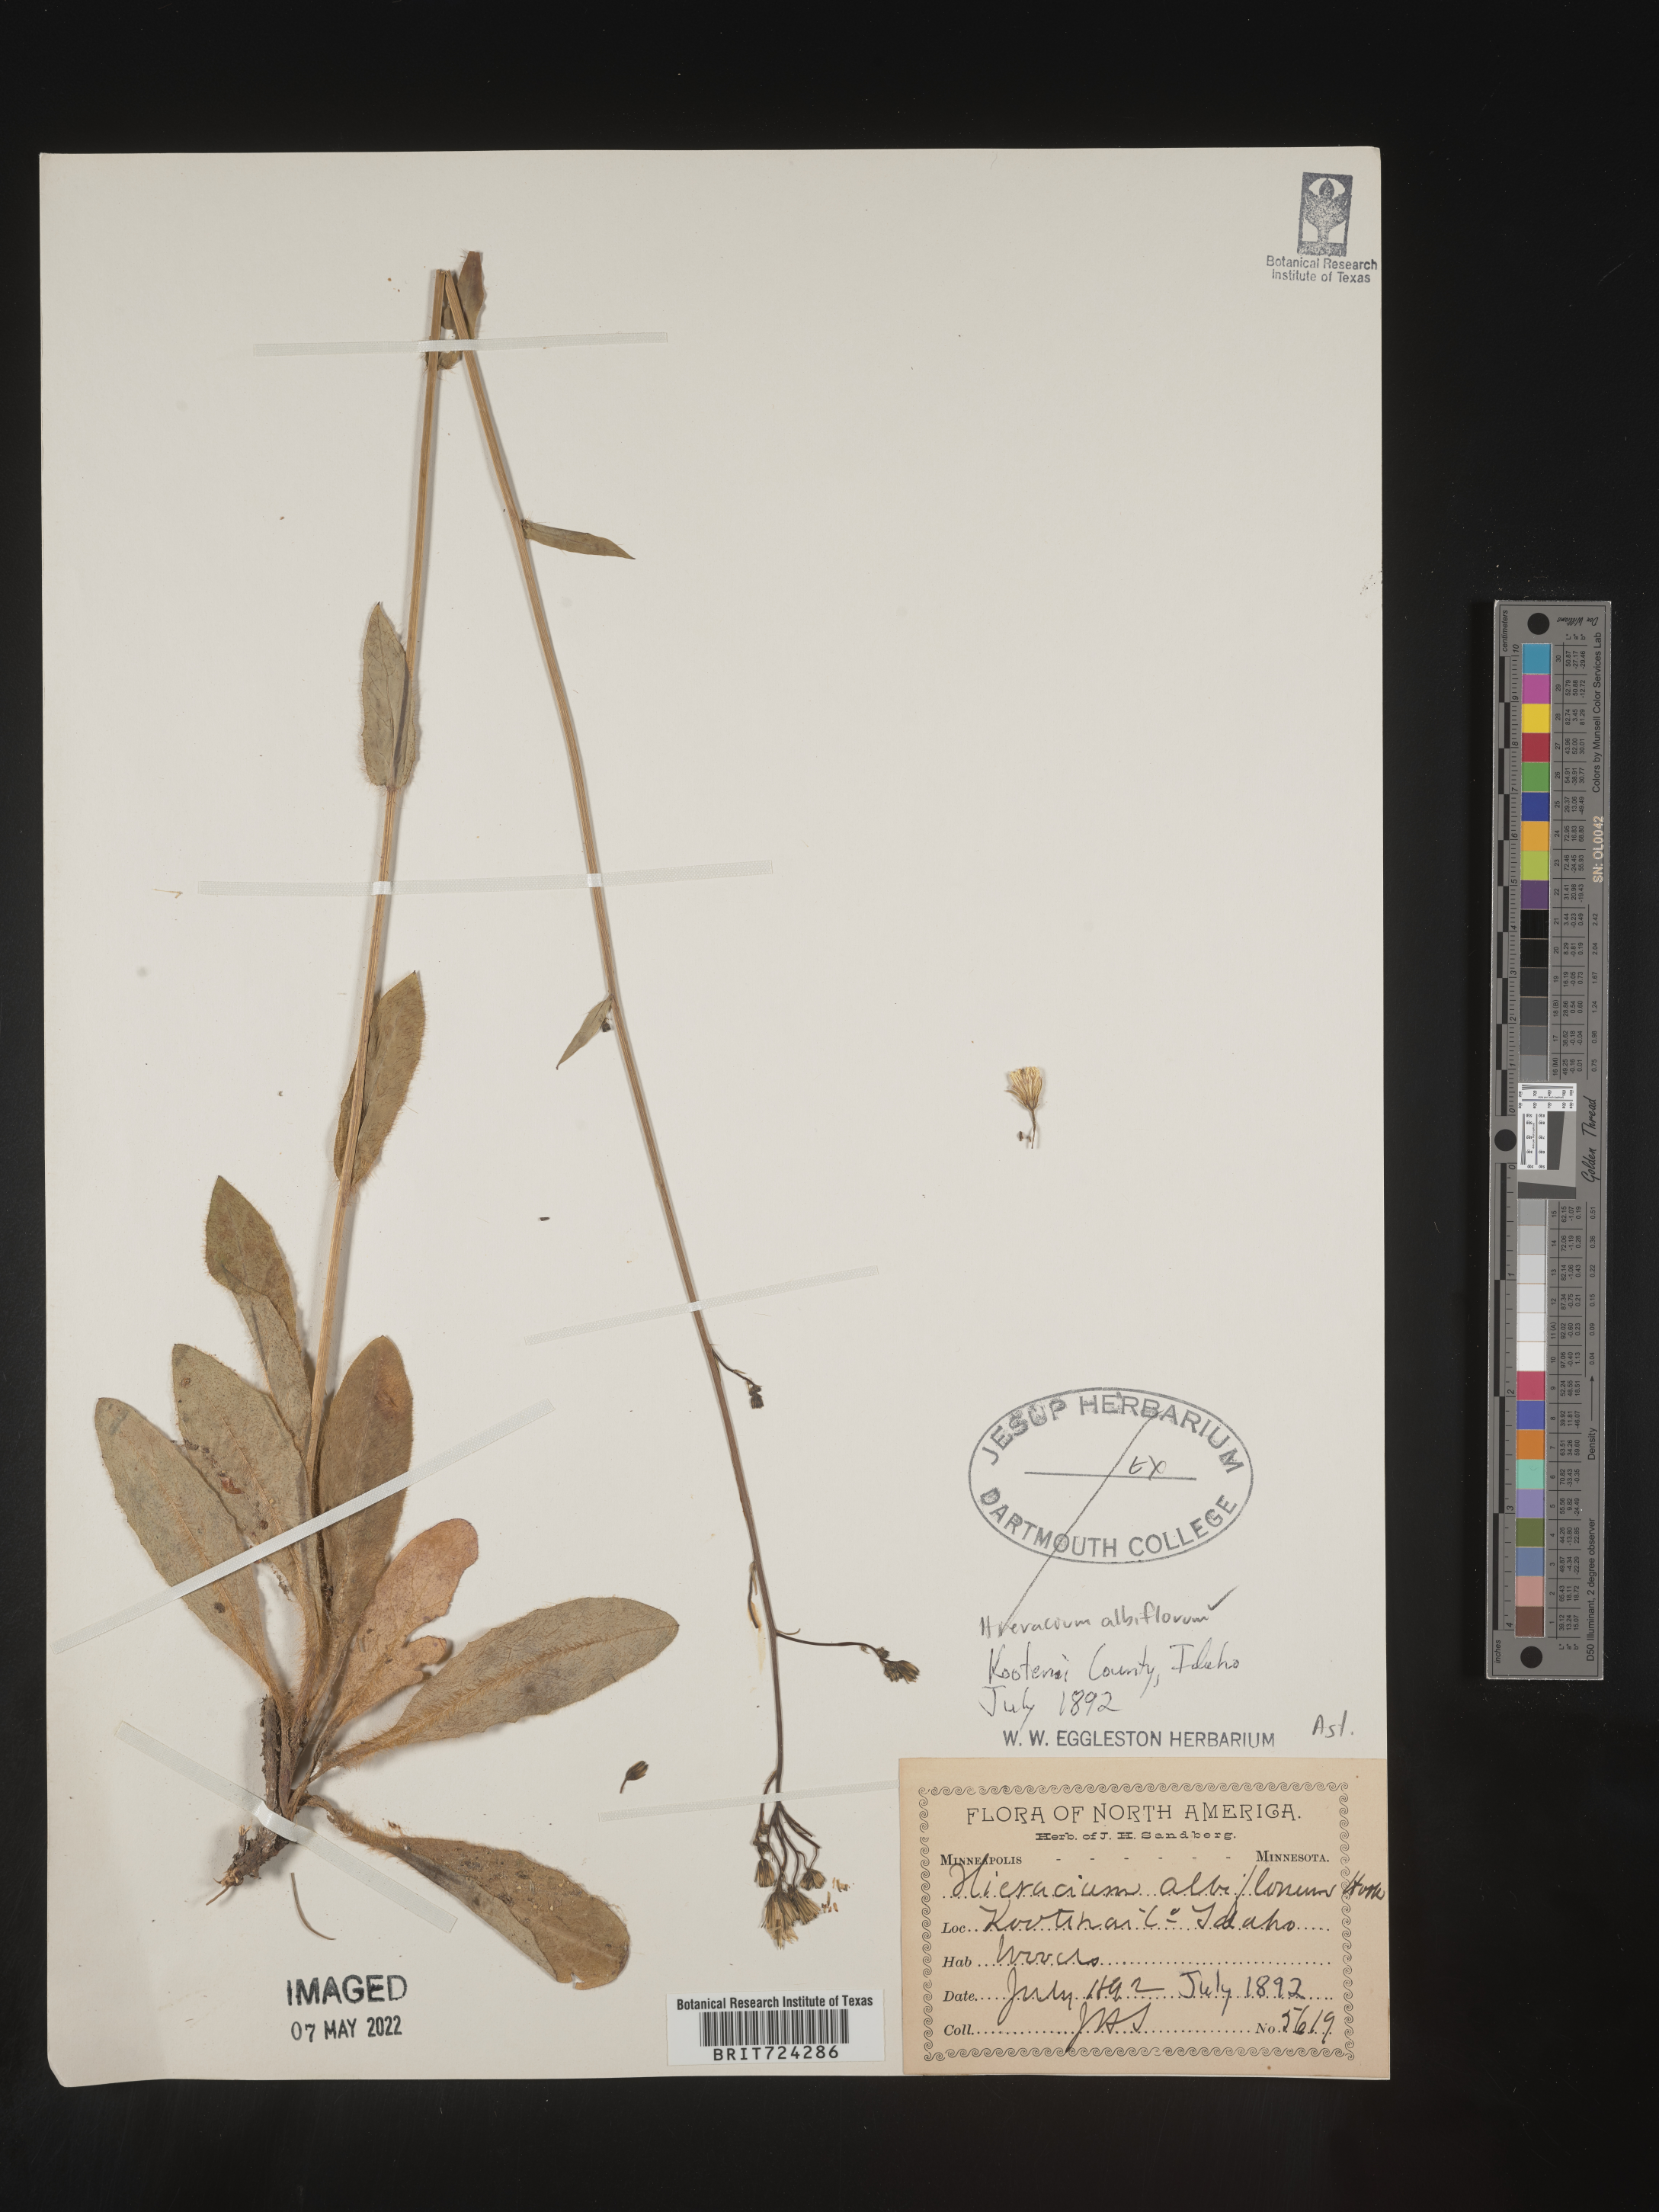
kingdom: Plantae
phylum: Tracheophyta
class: Magnoliopsida
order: Asterales
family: Asteraceae
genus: Hieracium
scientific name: Hieracium albiflorum
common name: White hawkweed
